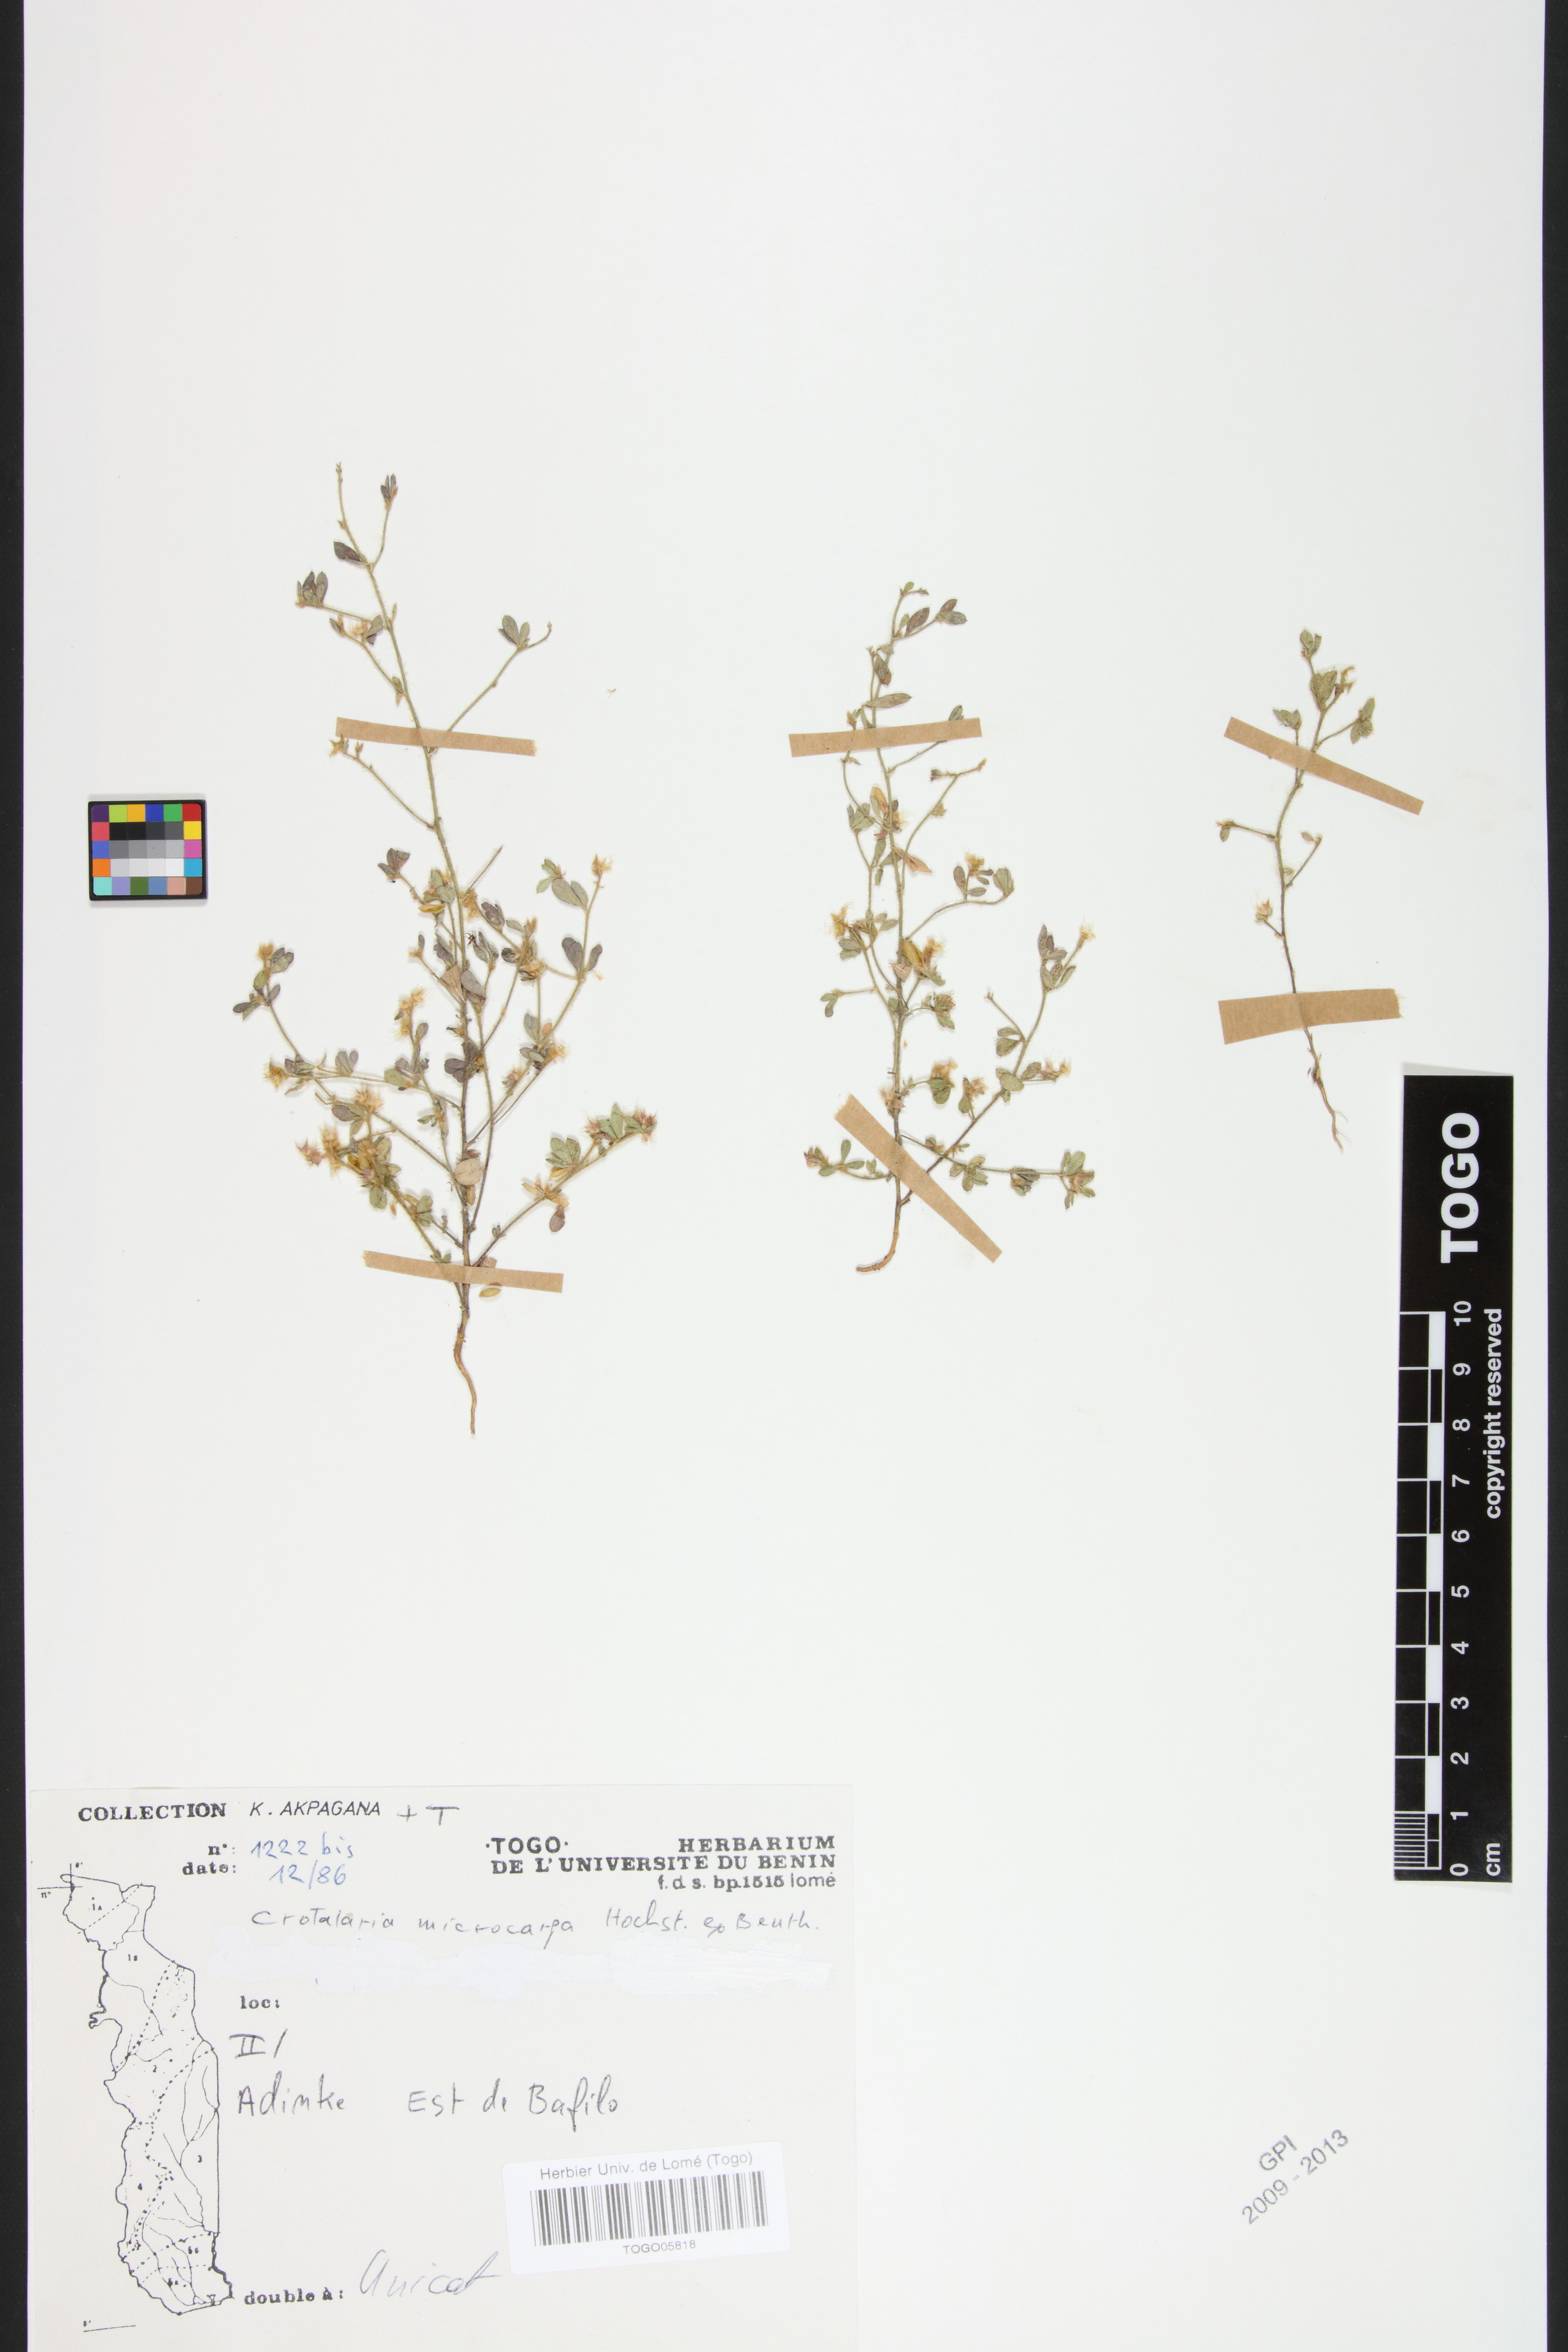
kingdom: Plantae
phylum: Tracheophyta
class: Magnoliopsida
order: Fabales
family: Fabaceae
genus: Crotalaria
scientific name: Crotalaria microcarpa
